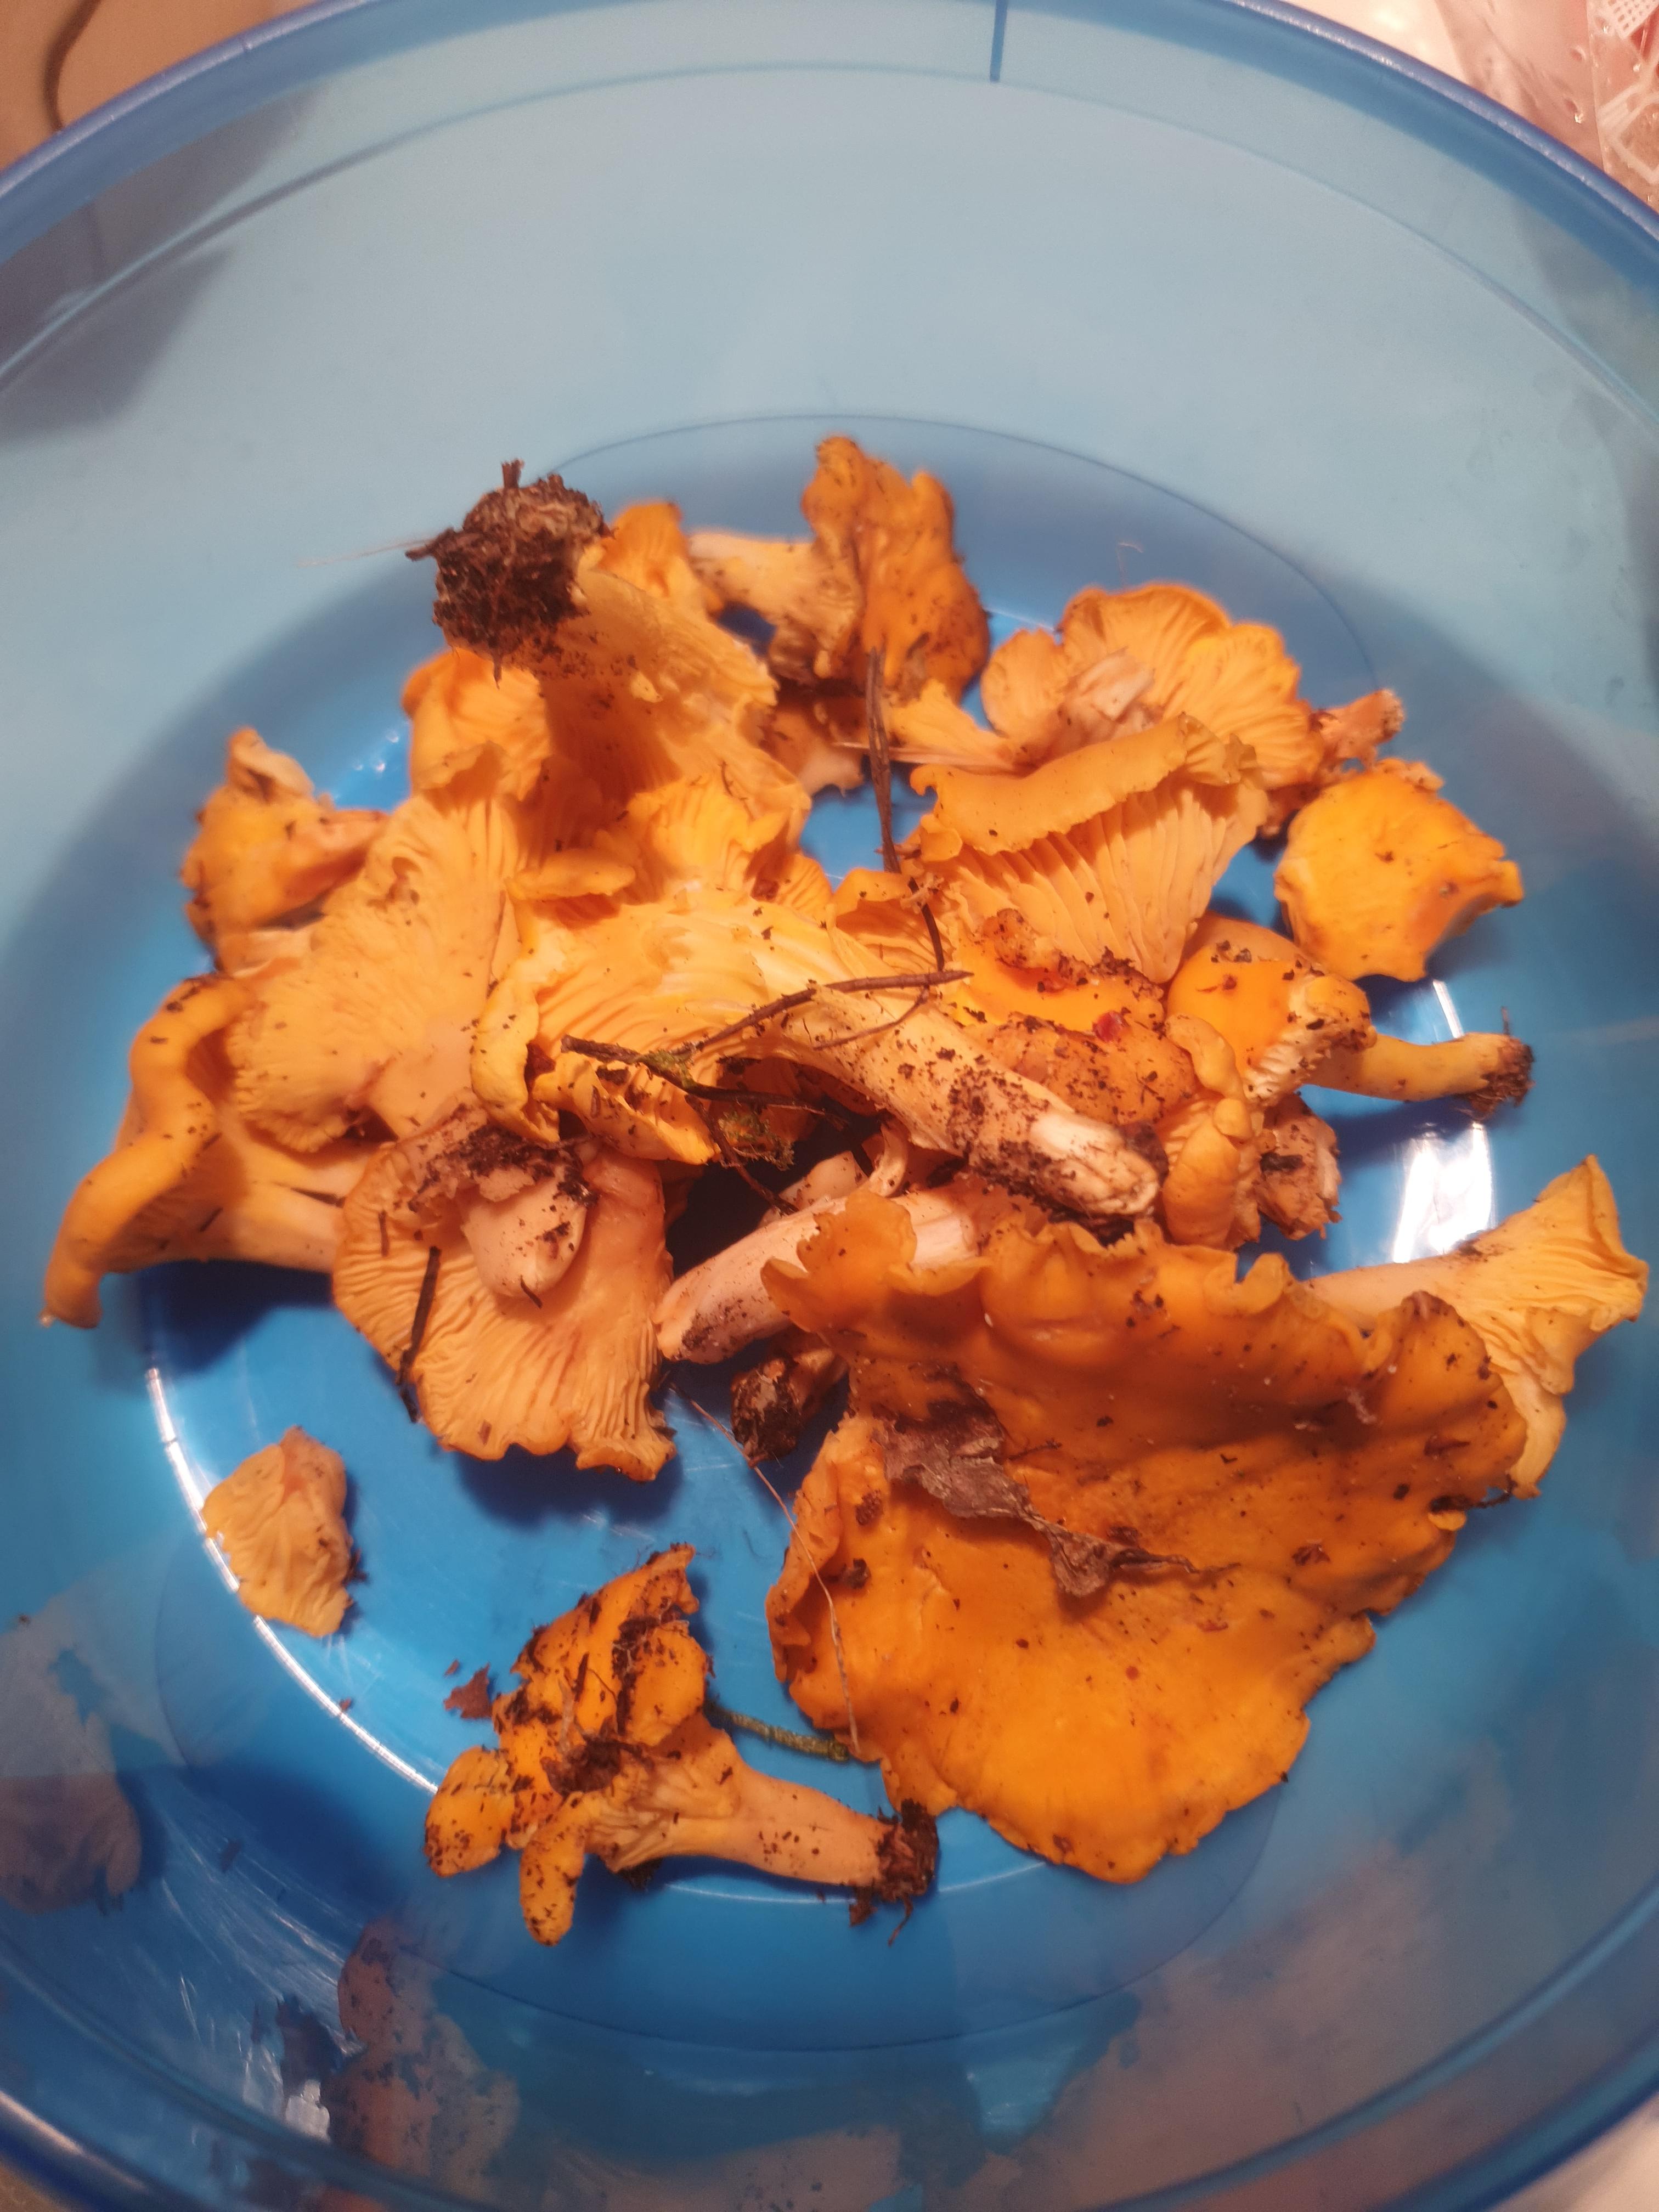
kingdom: Fungi
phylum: Basidiomycota
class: Agaricomycetes
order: Cantharellales
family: Hydnaceae
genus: Cantharellus
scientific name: Cantharellus cibarius
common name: almindelig kantarel
